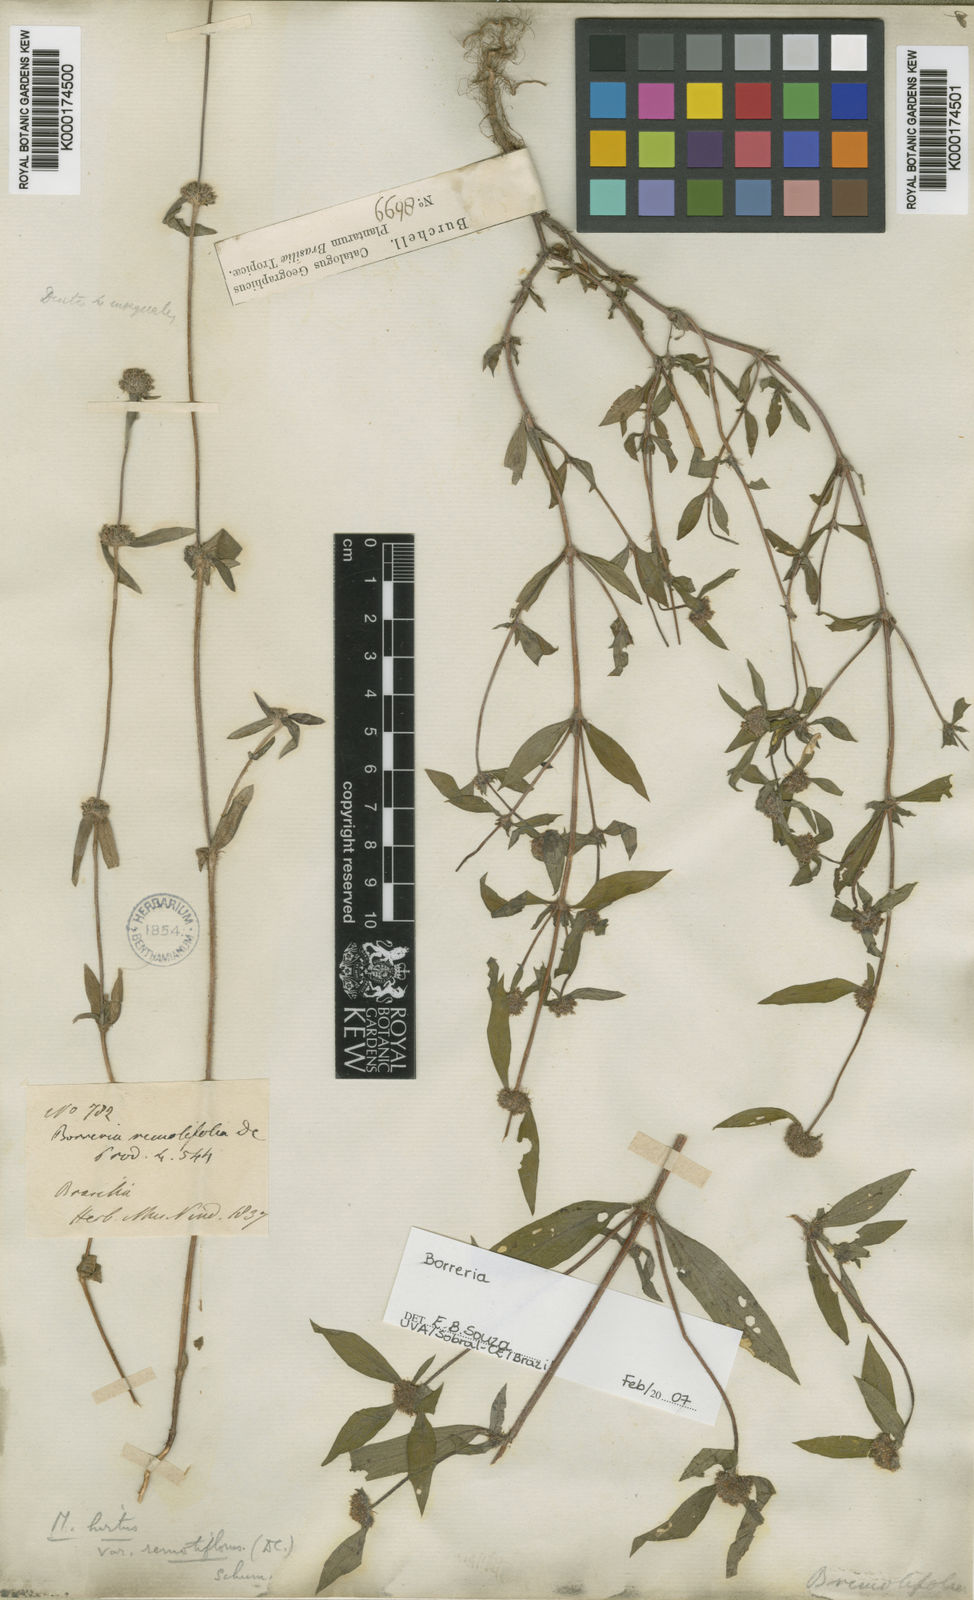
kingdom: Plantae
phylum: Tracheophyta
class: Magnoliopsida
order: Gentianales
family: Rubiaceae
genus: Mitracarpus
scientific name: Mitracarpus hirtus
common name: Tropical girdlepod
